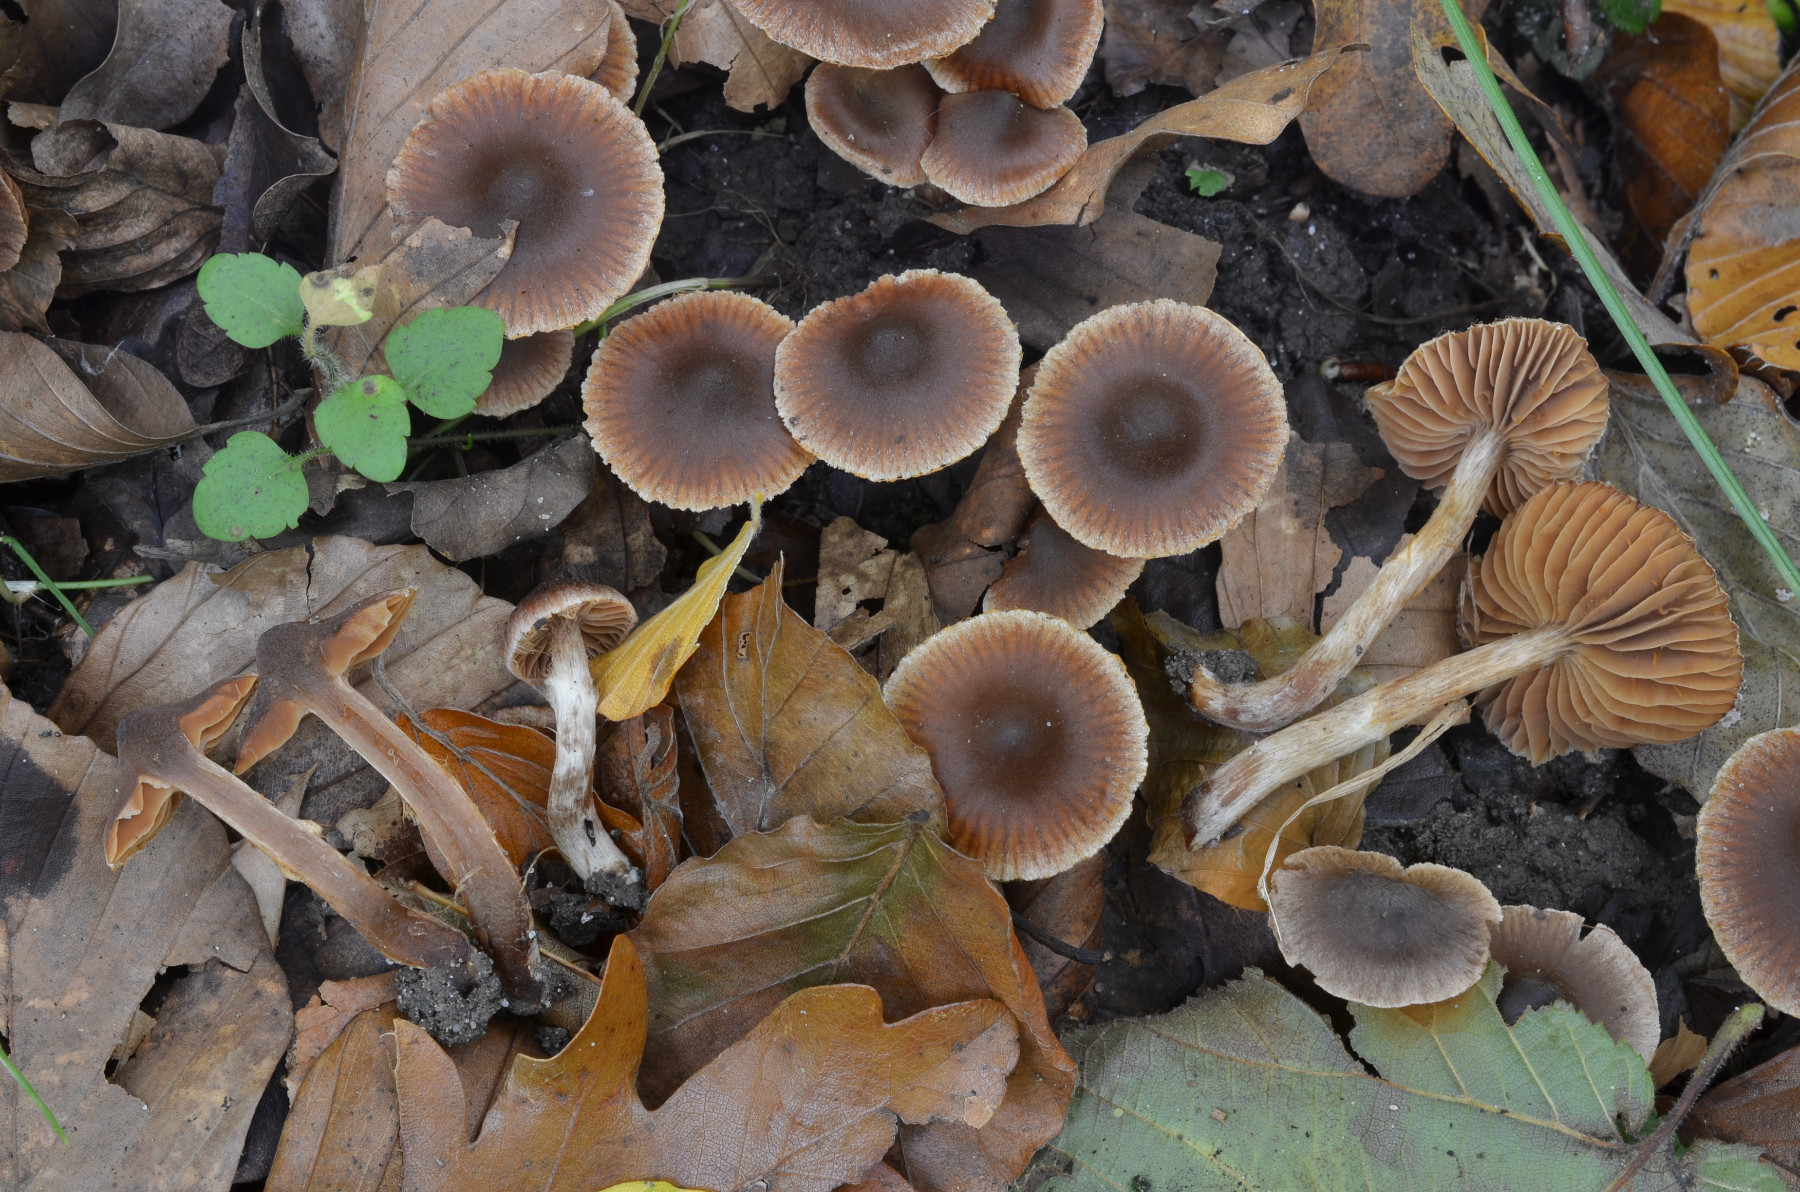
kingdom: Fungi
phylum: Basidiomycota
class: Agaricomycetes
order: Agaricales
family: Cortinariaceae
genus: Cortinarius
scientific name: Cortinarius pseudofusisporus
